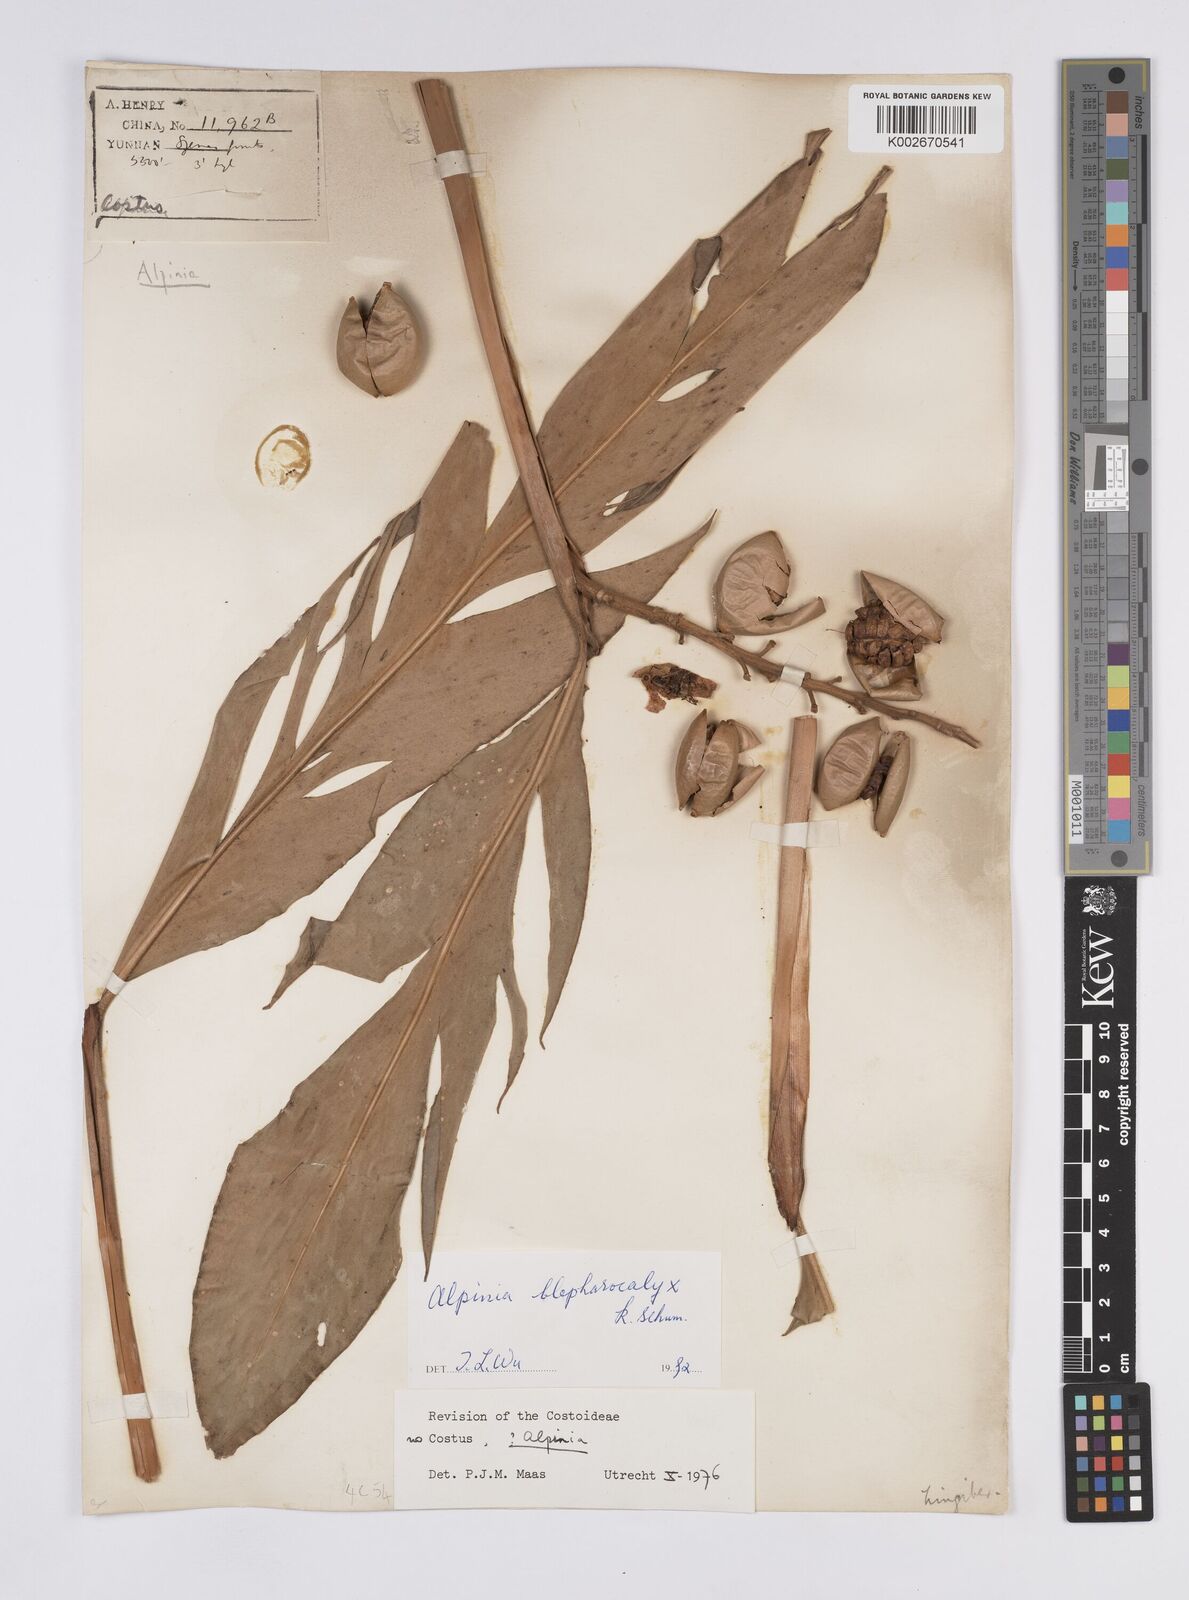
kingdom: Plantae
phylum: Tracheophyta
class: Liliopsida
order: Zingiberales
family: Zingiberaceae
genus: Alpinia
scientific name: Alpinia roxburghii
